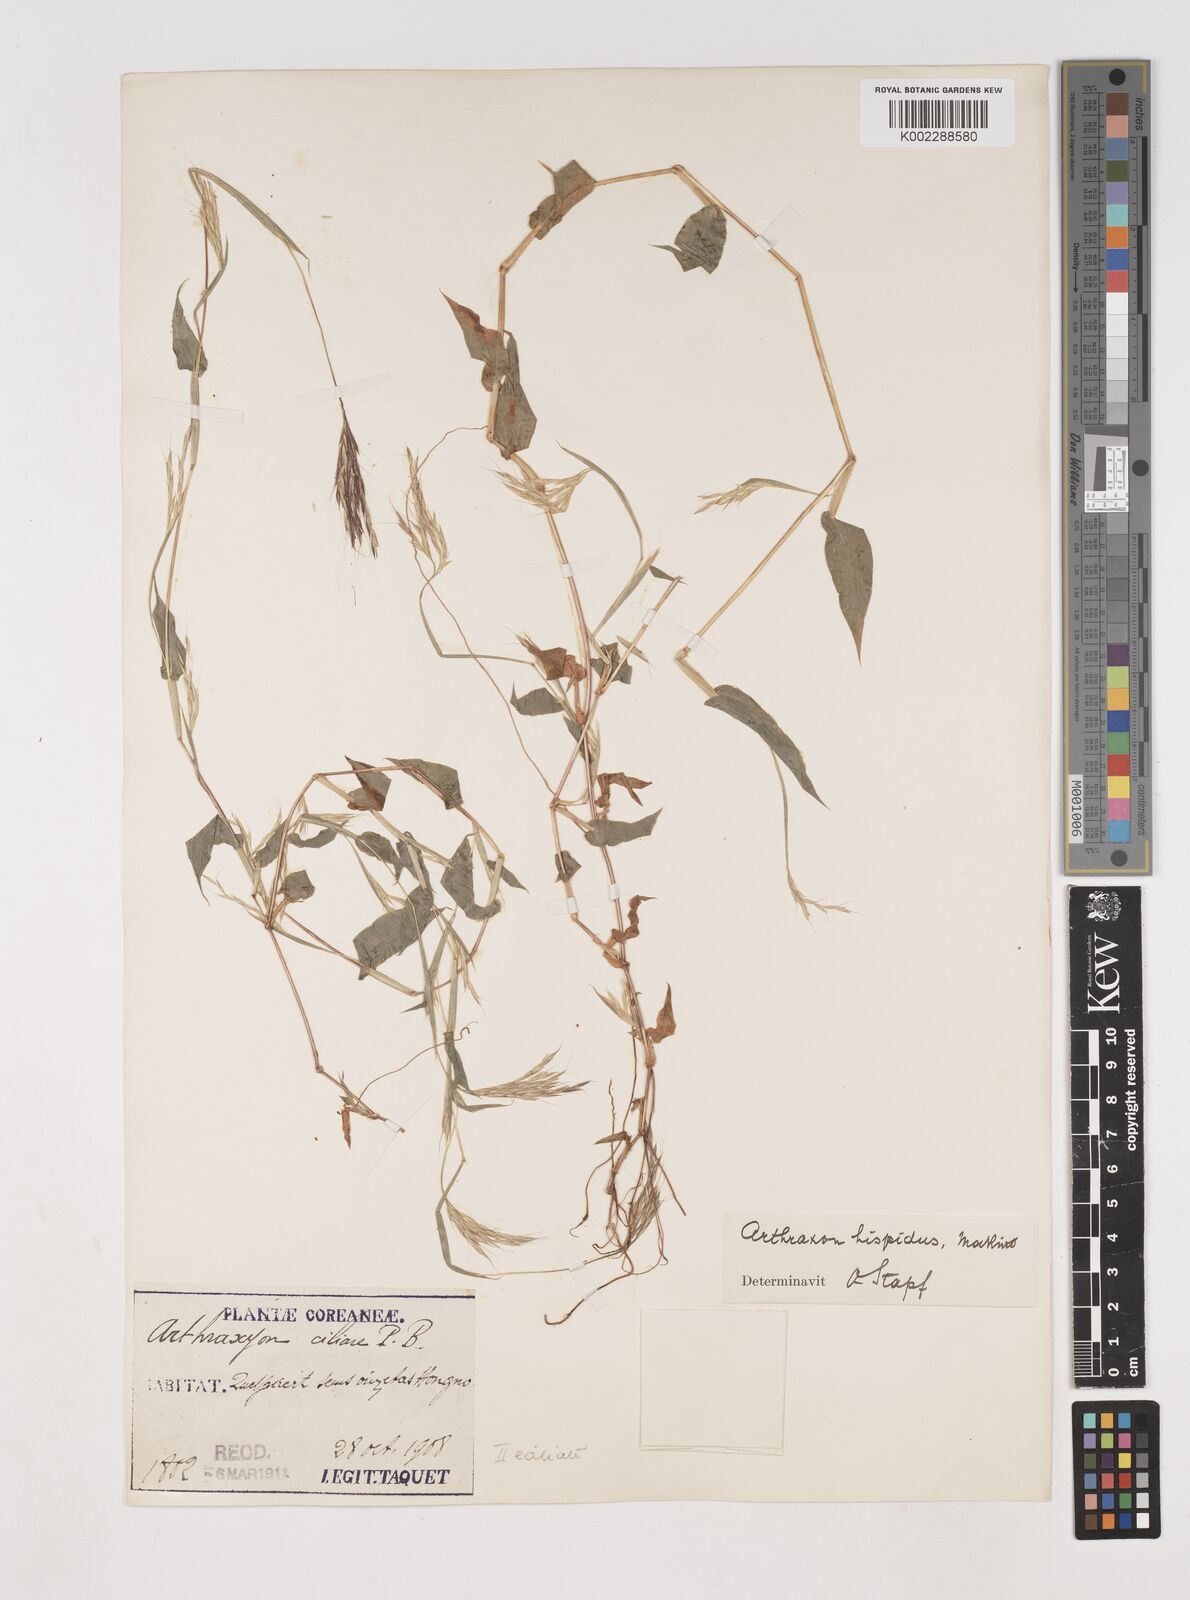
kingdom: Plantae
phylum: Tracheophyta
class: Liliopsida
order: Poales
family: Poaceae
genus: Arthraxon
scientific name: Arthraxon hispidus
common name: Small carpgrass
